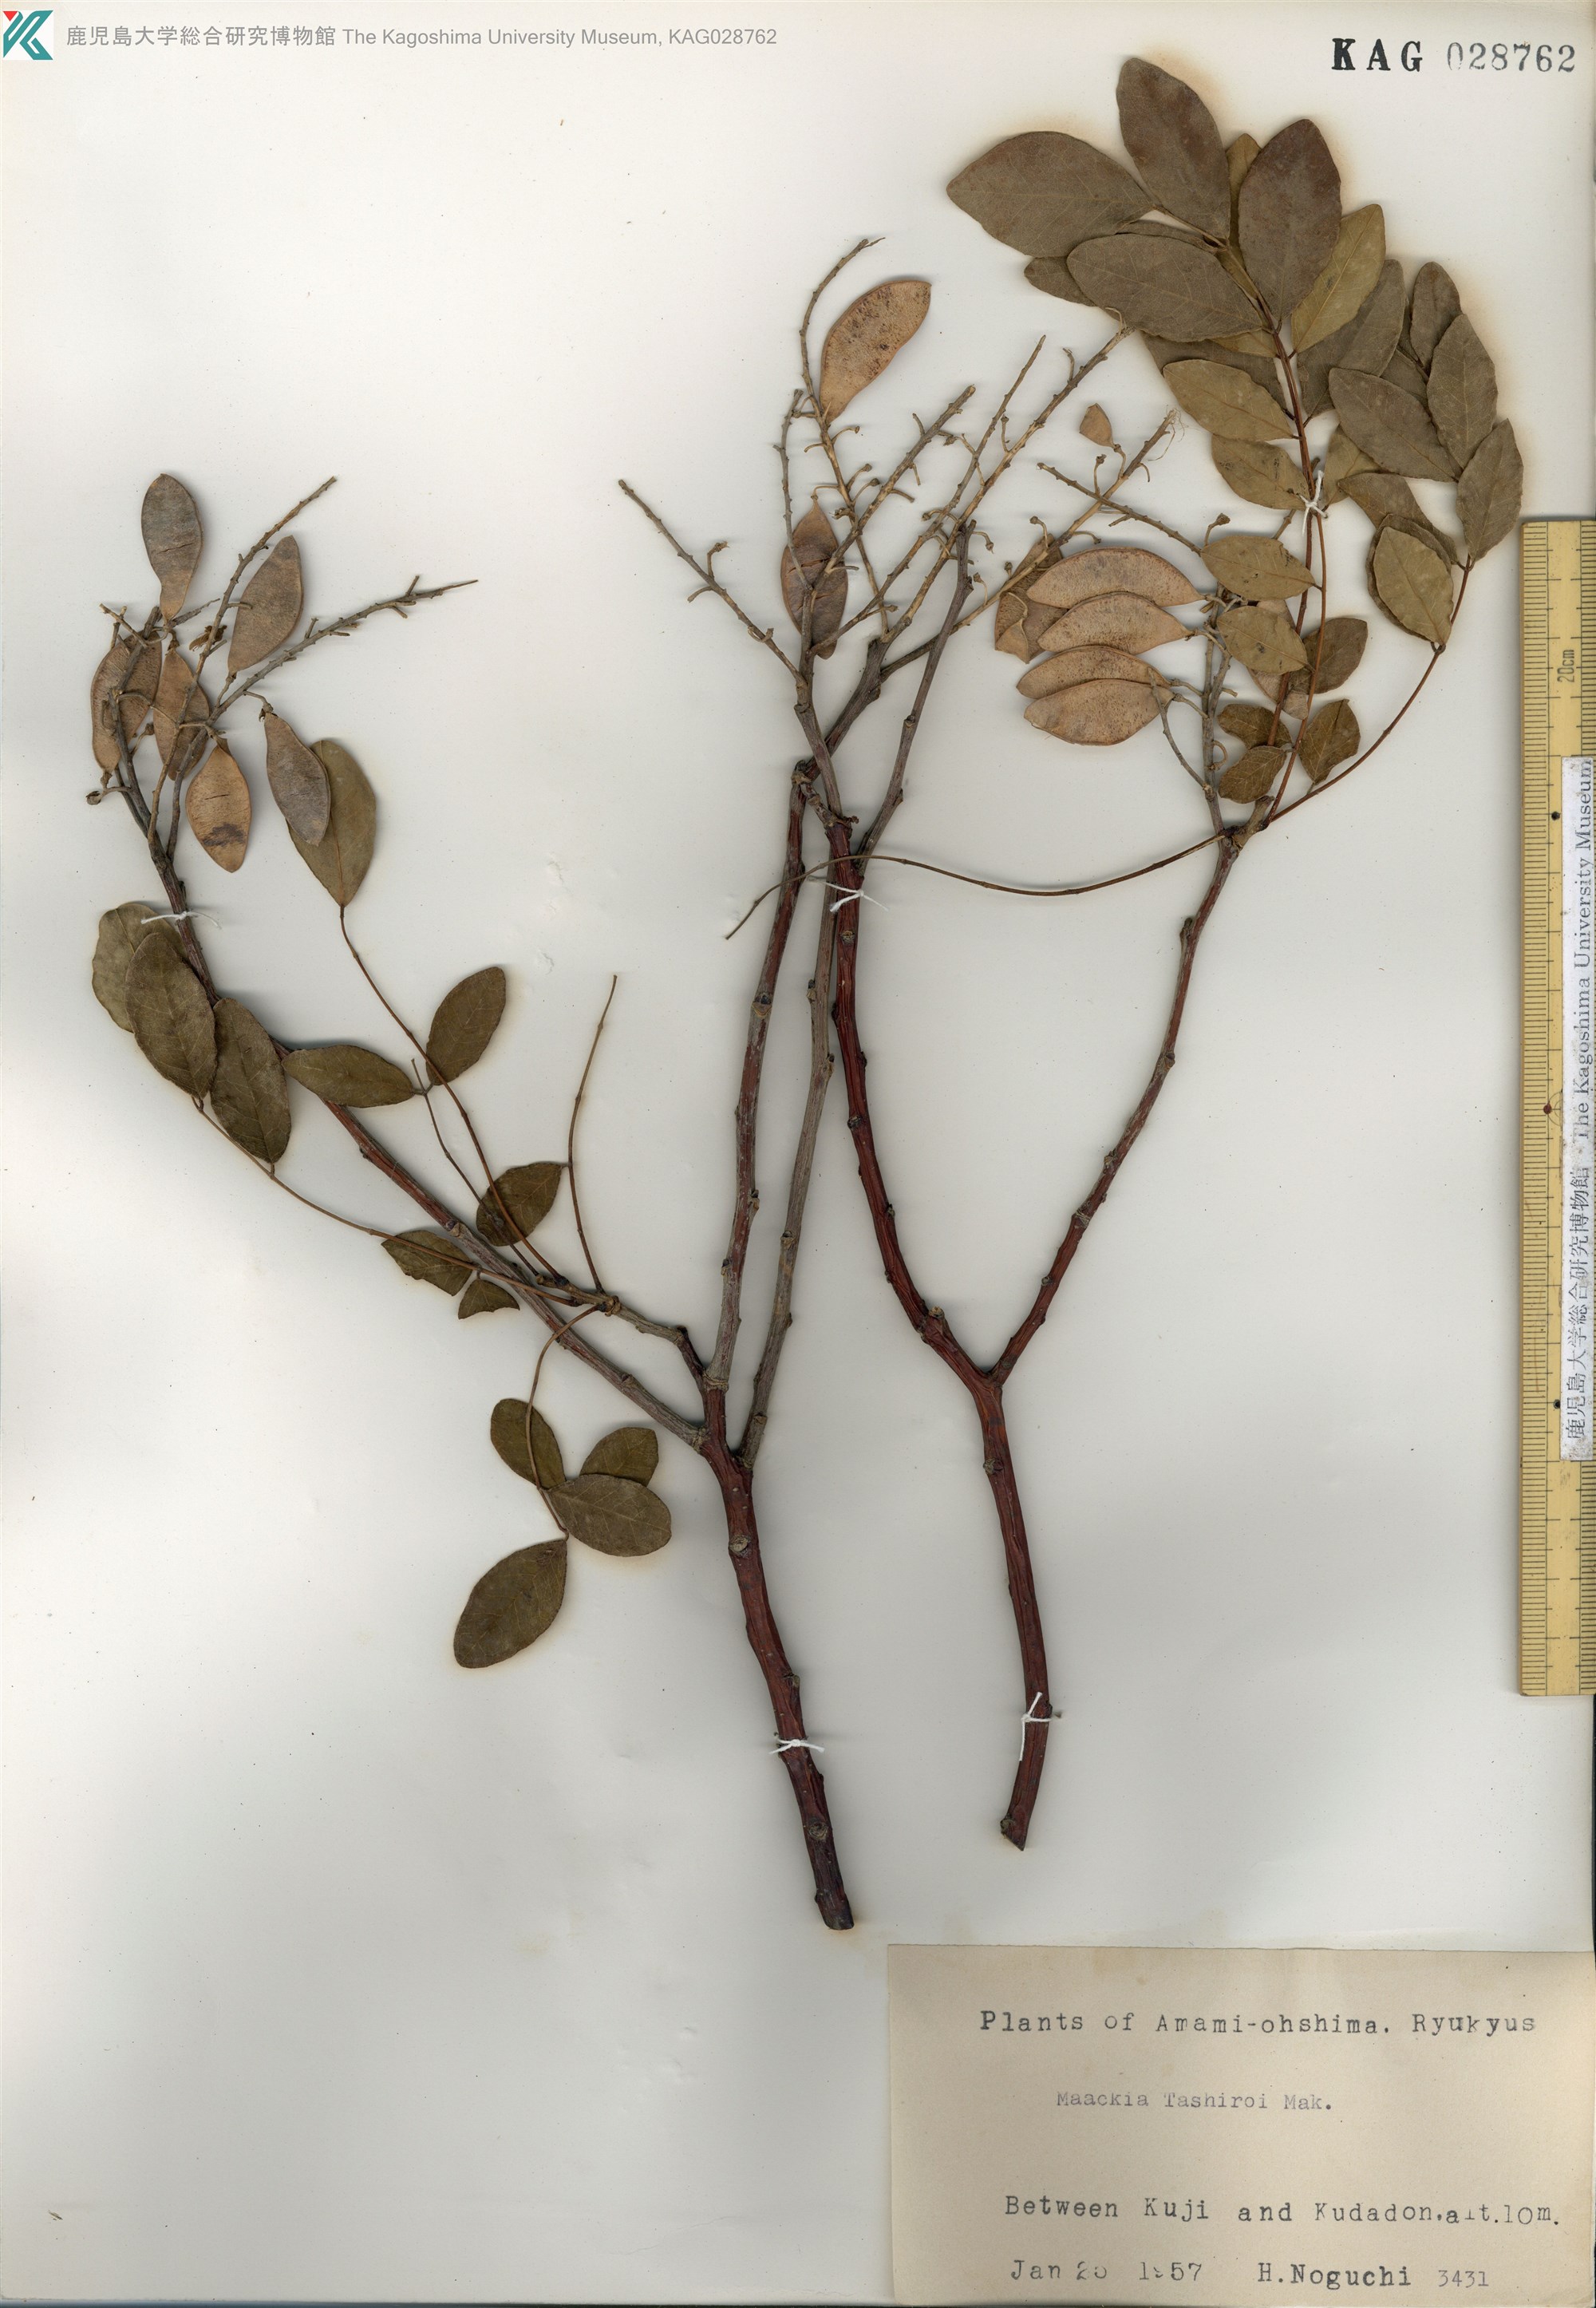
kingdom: Plantae
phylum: Tracheophyta
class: Magnoliopsida
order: Fabales
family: Fabaceae
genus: Maackia
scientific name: Maackia tashiroi
